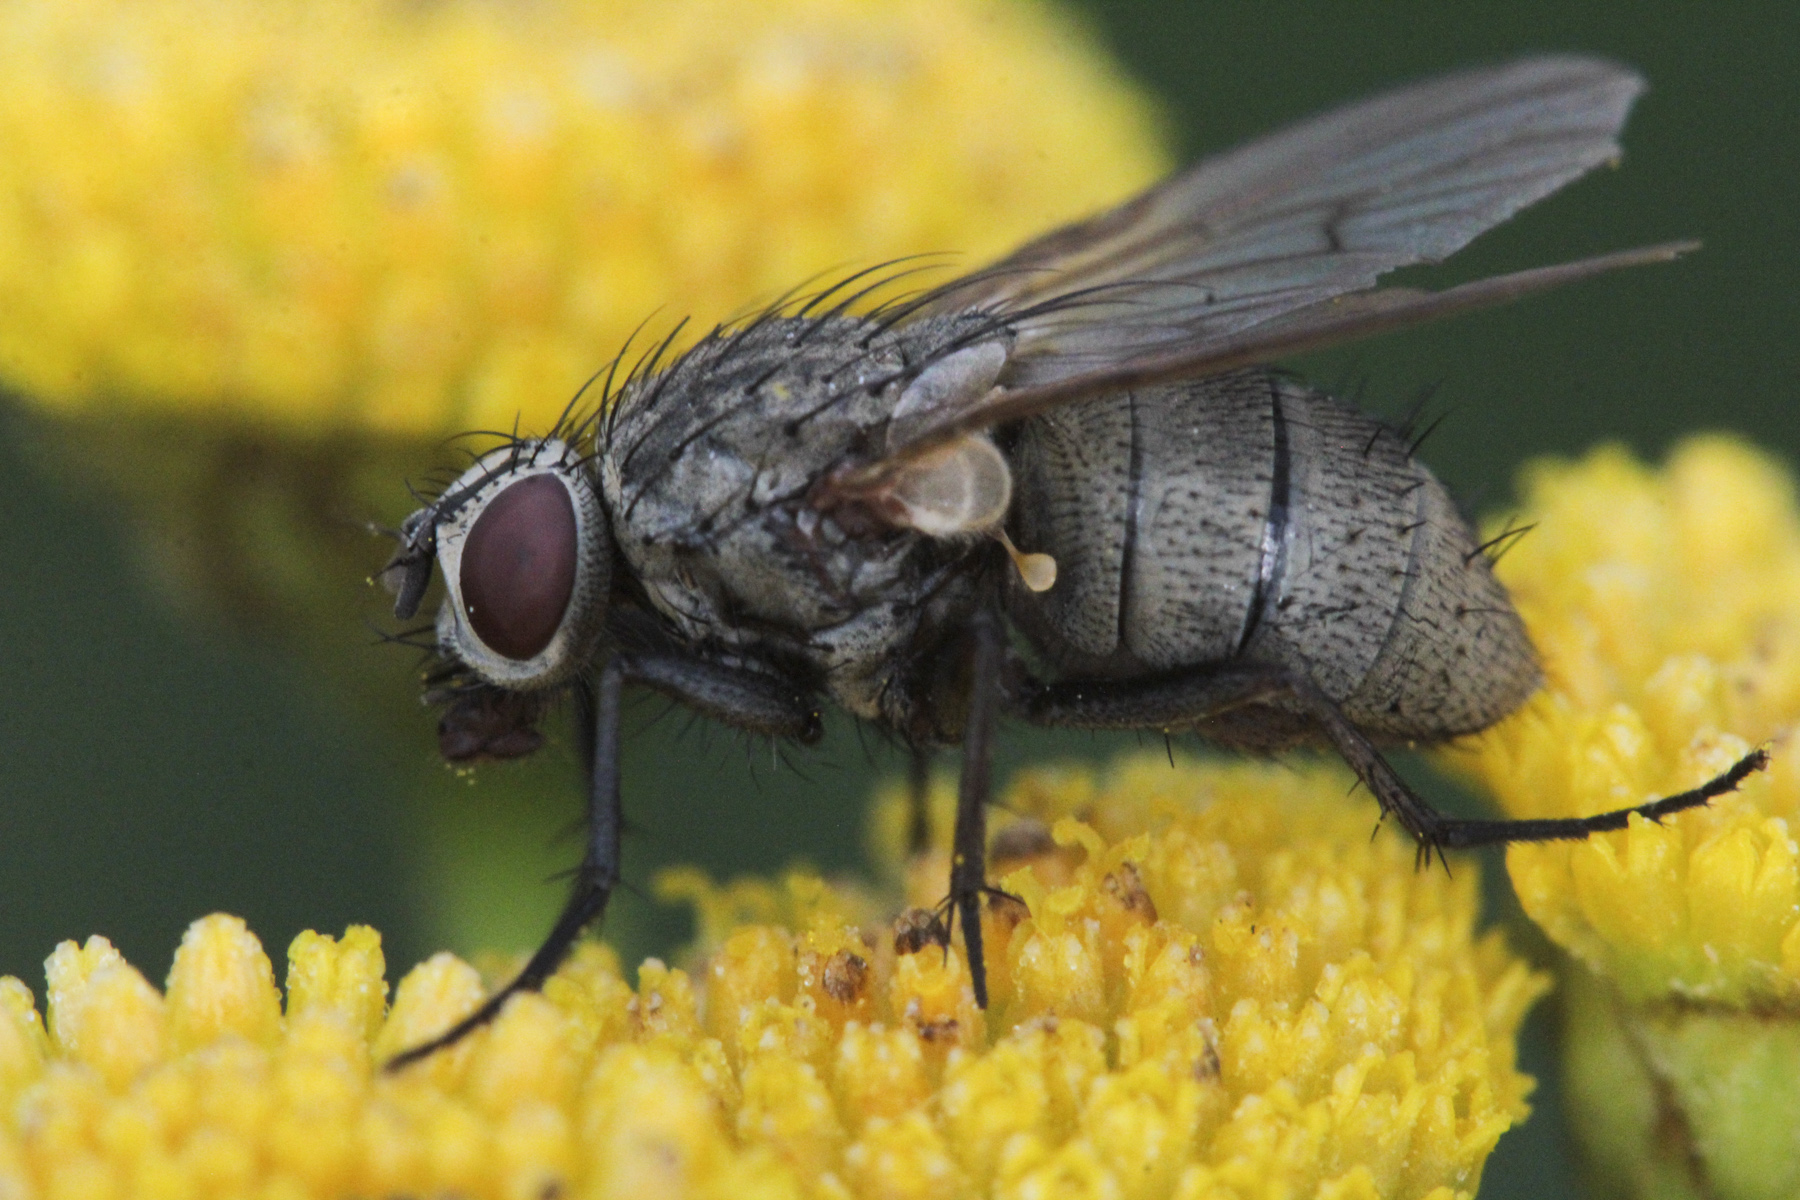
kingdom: Animalia
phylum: Arthropoda
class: Insecta
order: Diptera
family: Lauxaniidae
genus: Meiosimyza
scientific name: Meiosimyza pallidiventris
